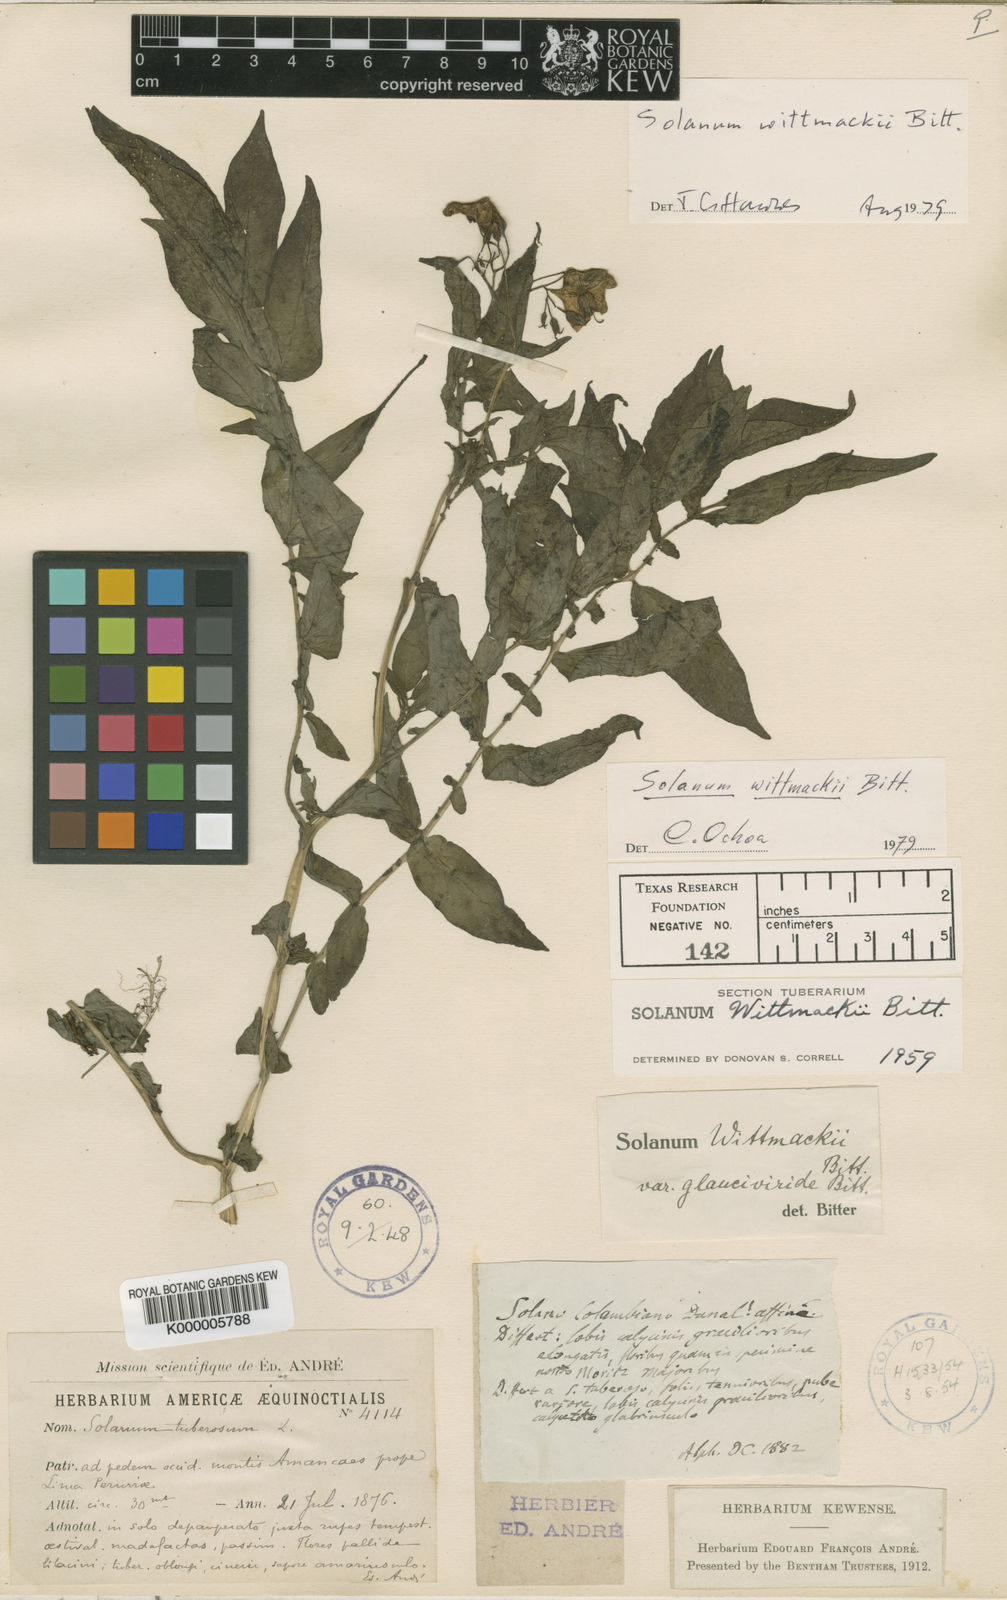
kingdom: Plantae
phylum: Tracheophyta
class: Magnoliopsida
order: Solanales
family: Solanaceae
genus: Solanum
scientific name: Solanum wittmackii
